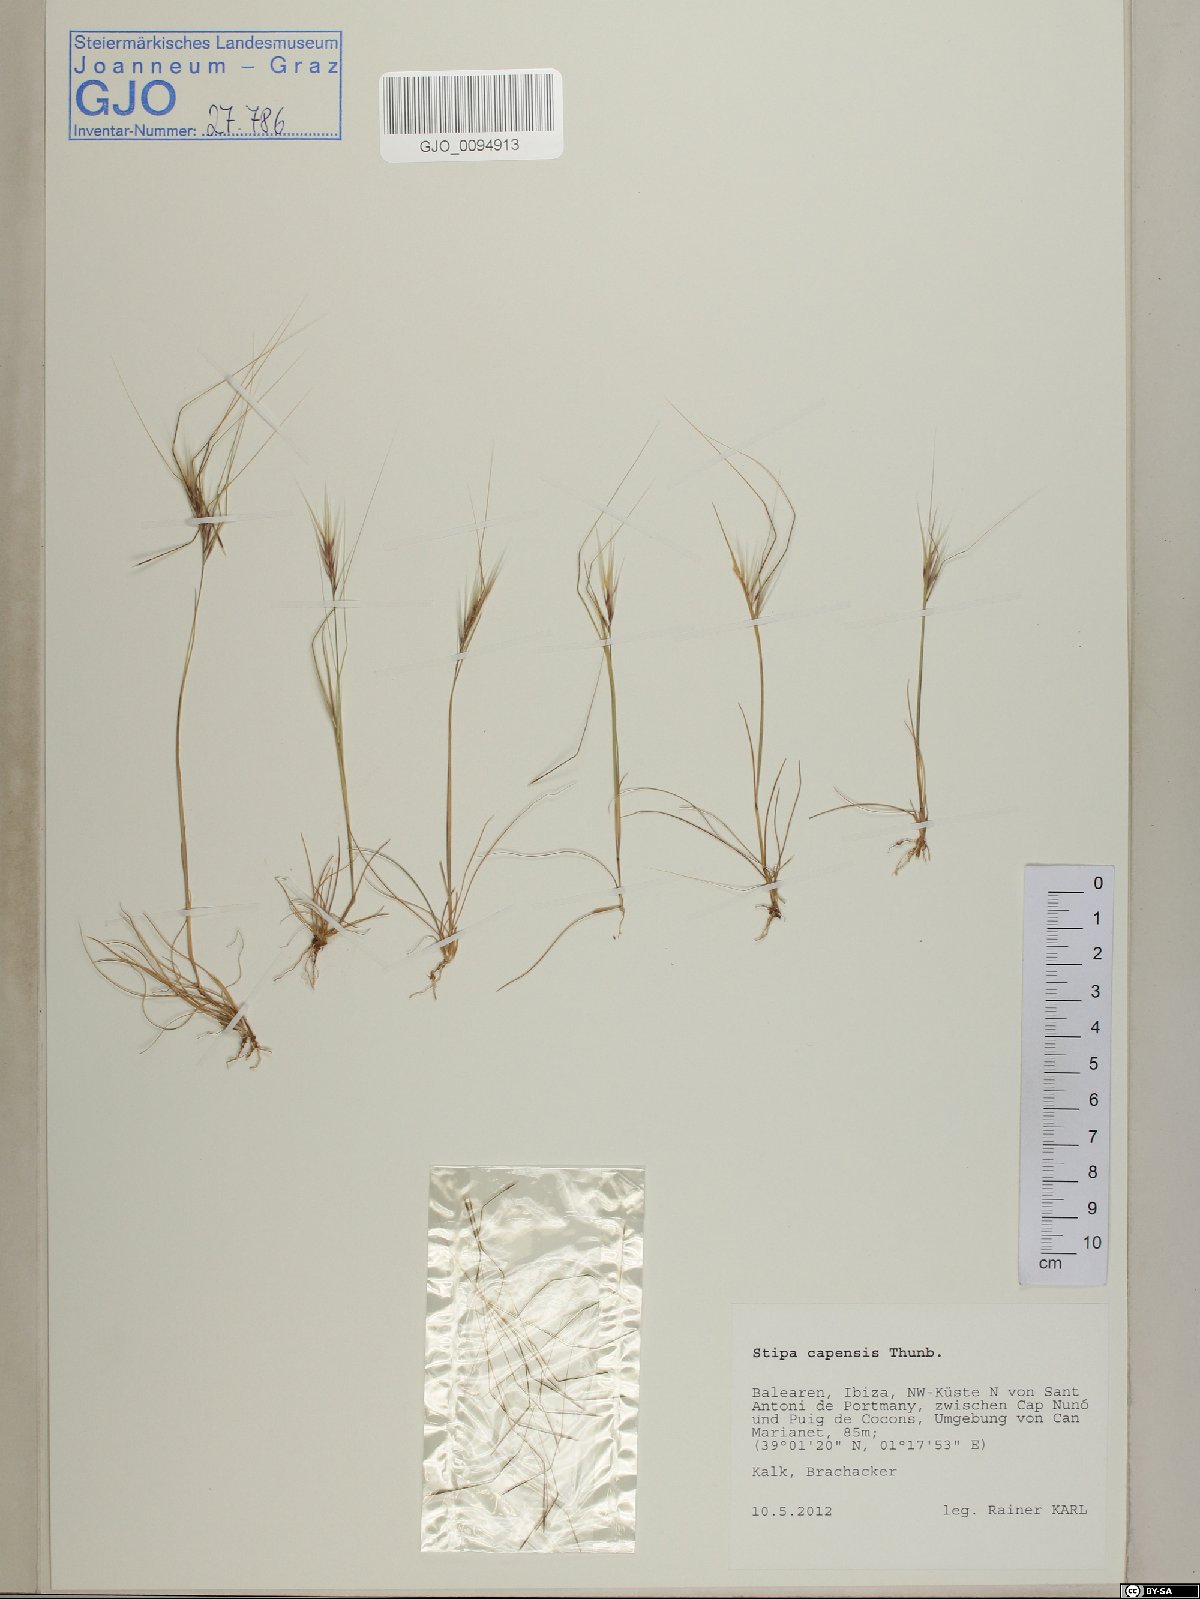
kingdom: Plantae
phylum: Tracheophyta
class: Liliopsida
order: Poales
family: Poaceae
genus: Stipellula
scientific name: Stipellula capensis
